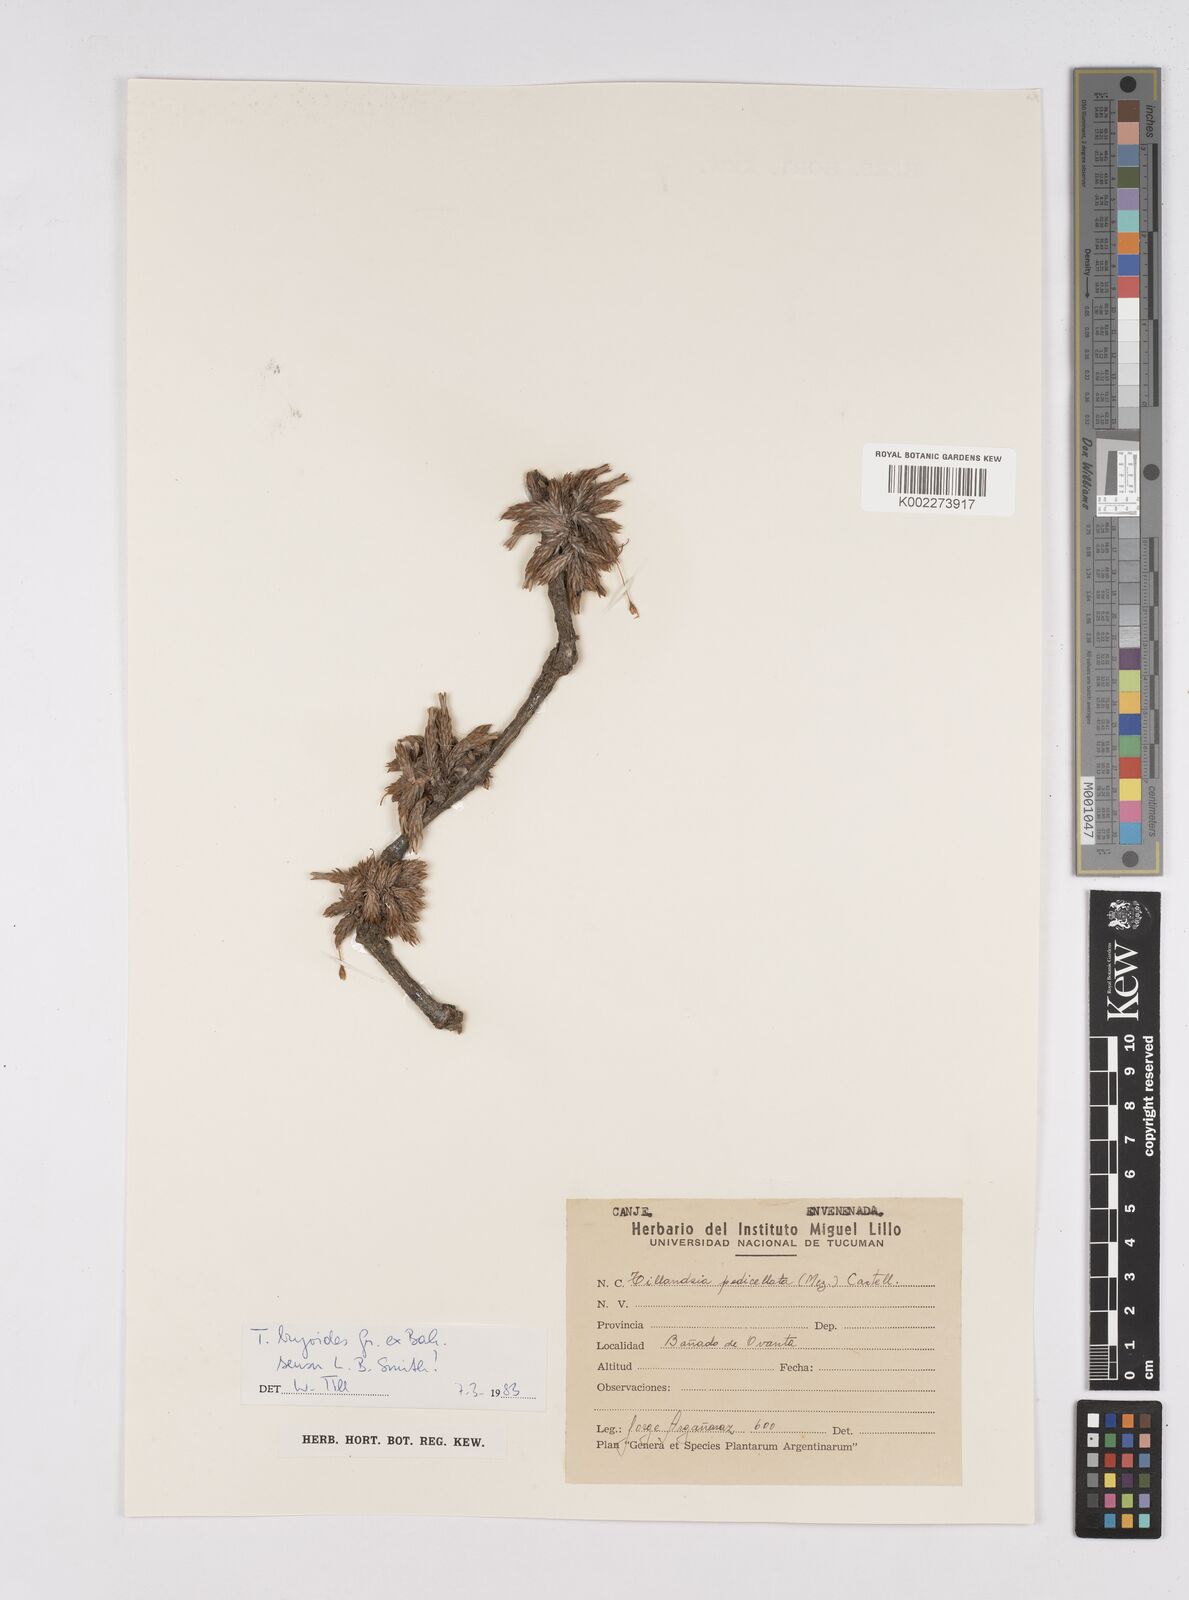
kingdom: Plantae
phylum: Tracheophyta
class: Liliopsida
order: Poales
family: Bromeliaceae
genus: Tillandsia
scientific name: Tillandsia tricholepis
